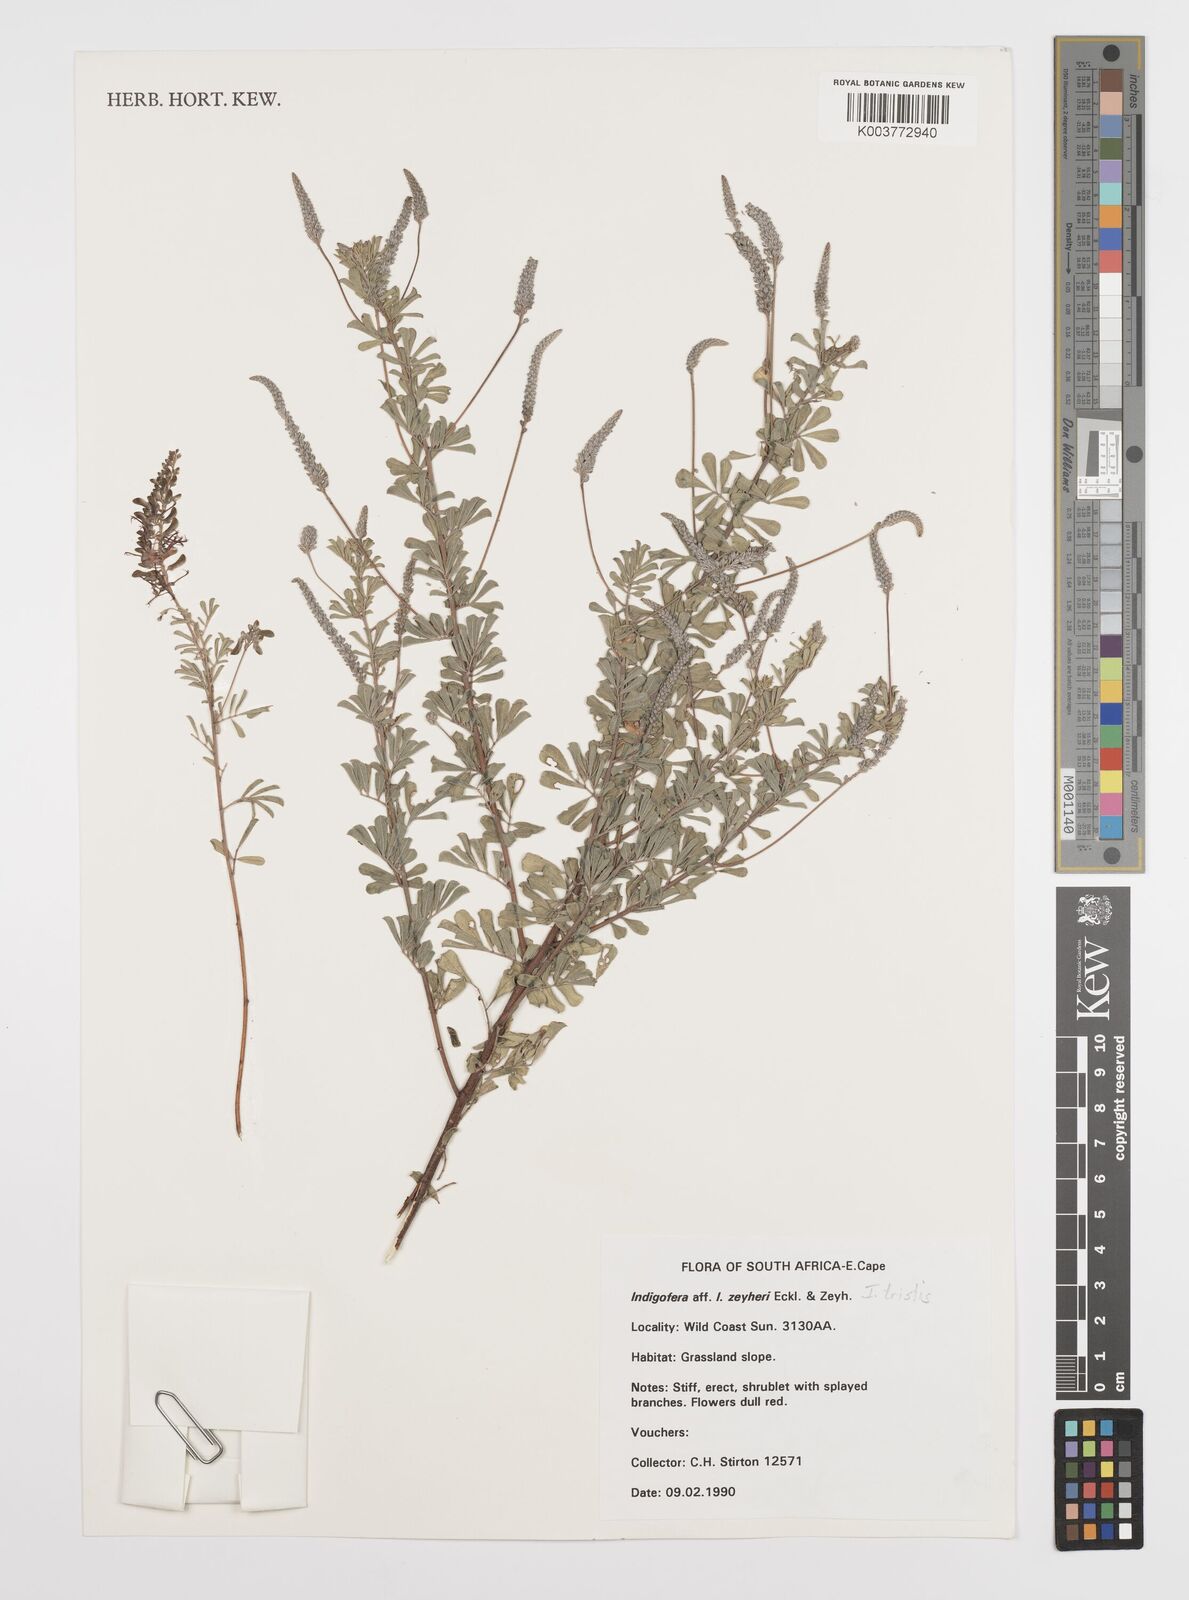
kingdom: Plantae
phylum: Tracheophyta
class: Magnoliopsida
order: Fabales
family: Fabaceae
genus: Indigofera
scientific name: Indigofera
